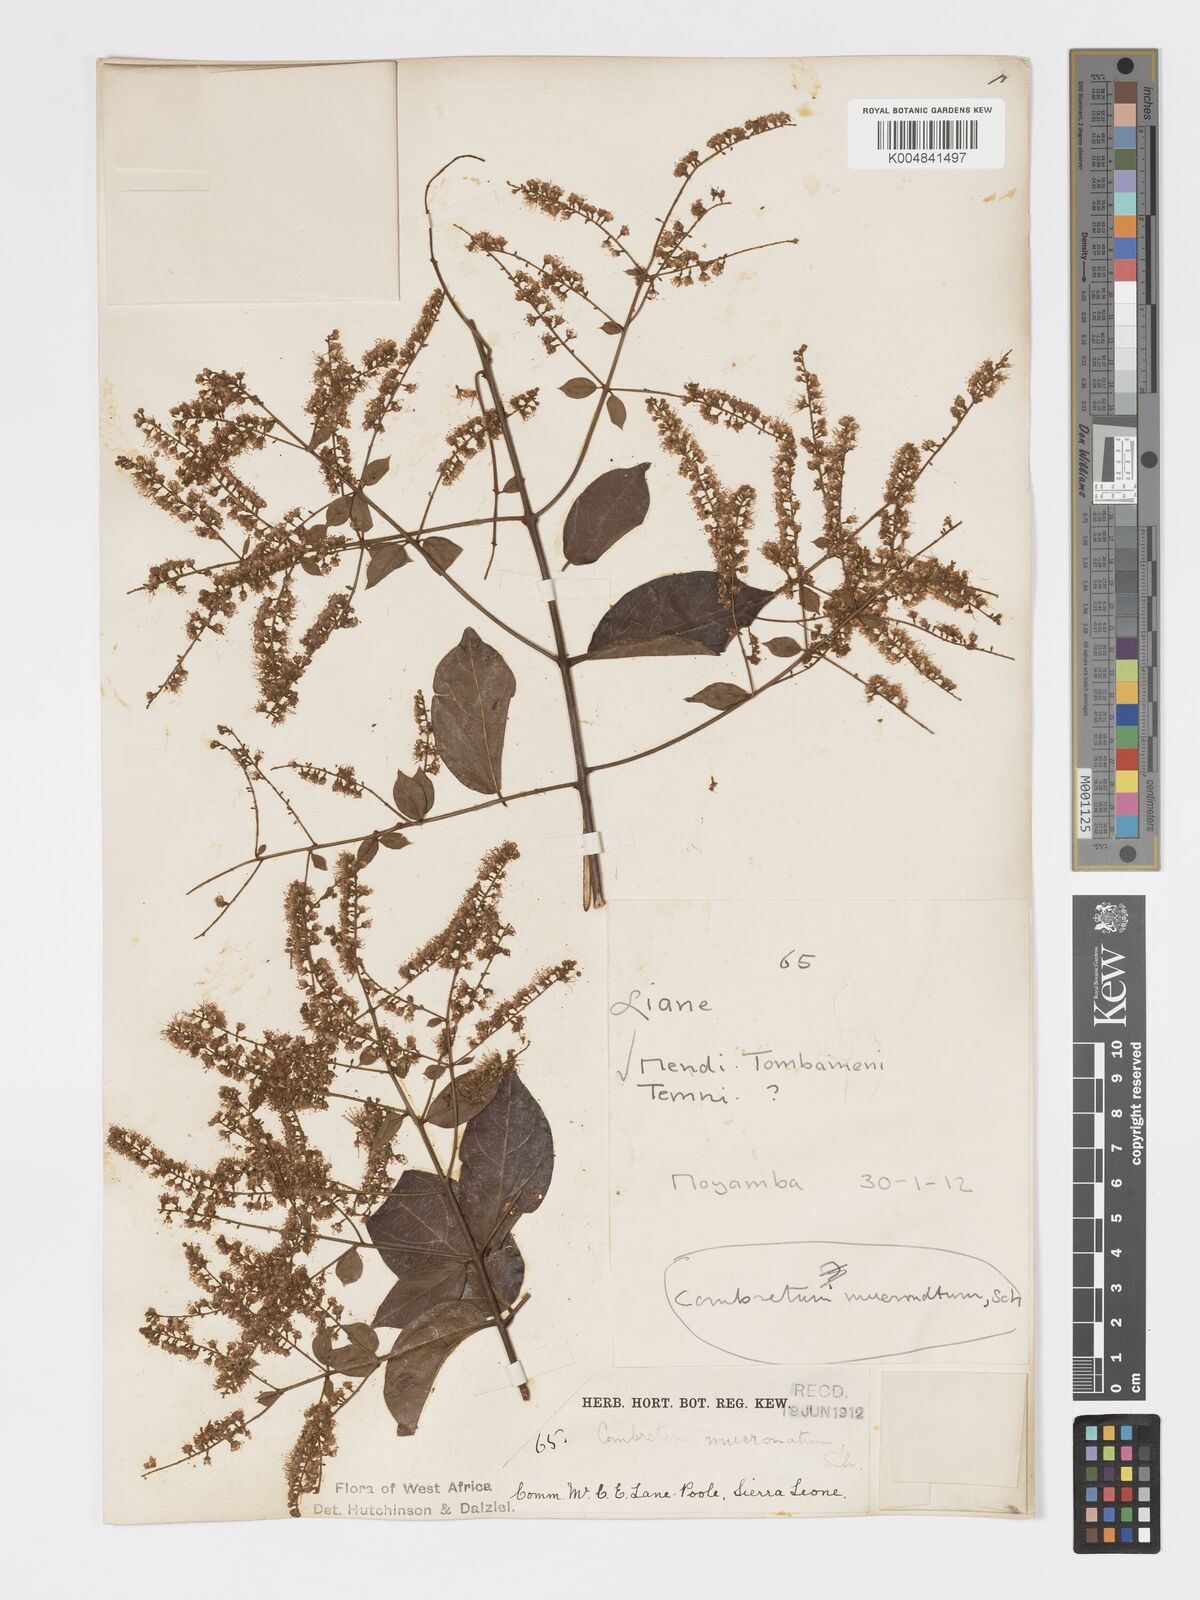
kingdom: Plantae
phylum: Tracheophyta
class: Magnoliopsida
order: Myrtales
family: Combretaceae
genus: Combretum
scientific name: Combretum mucronatum
